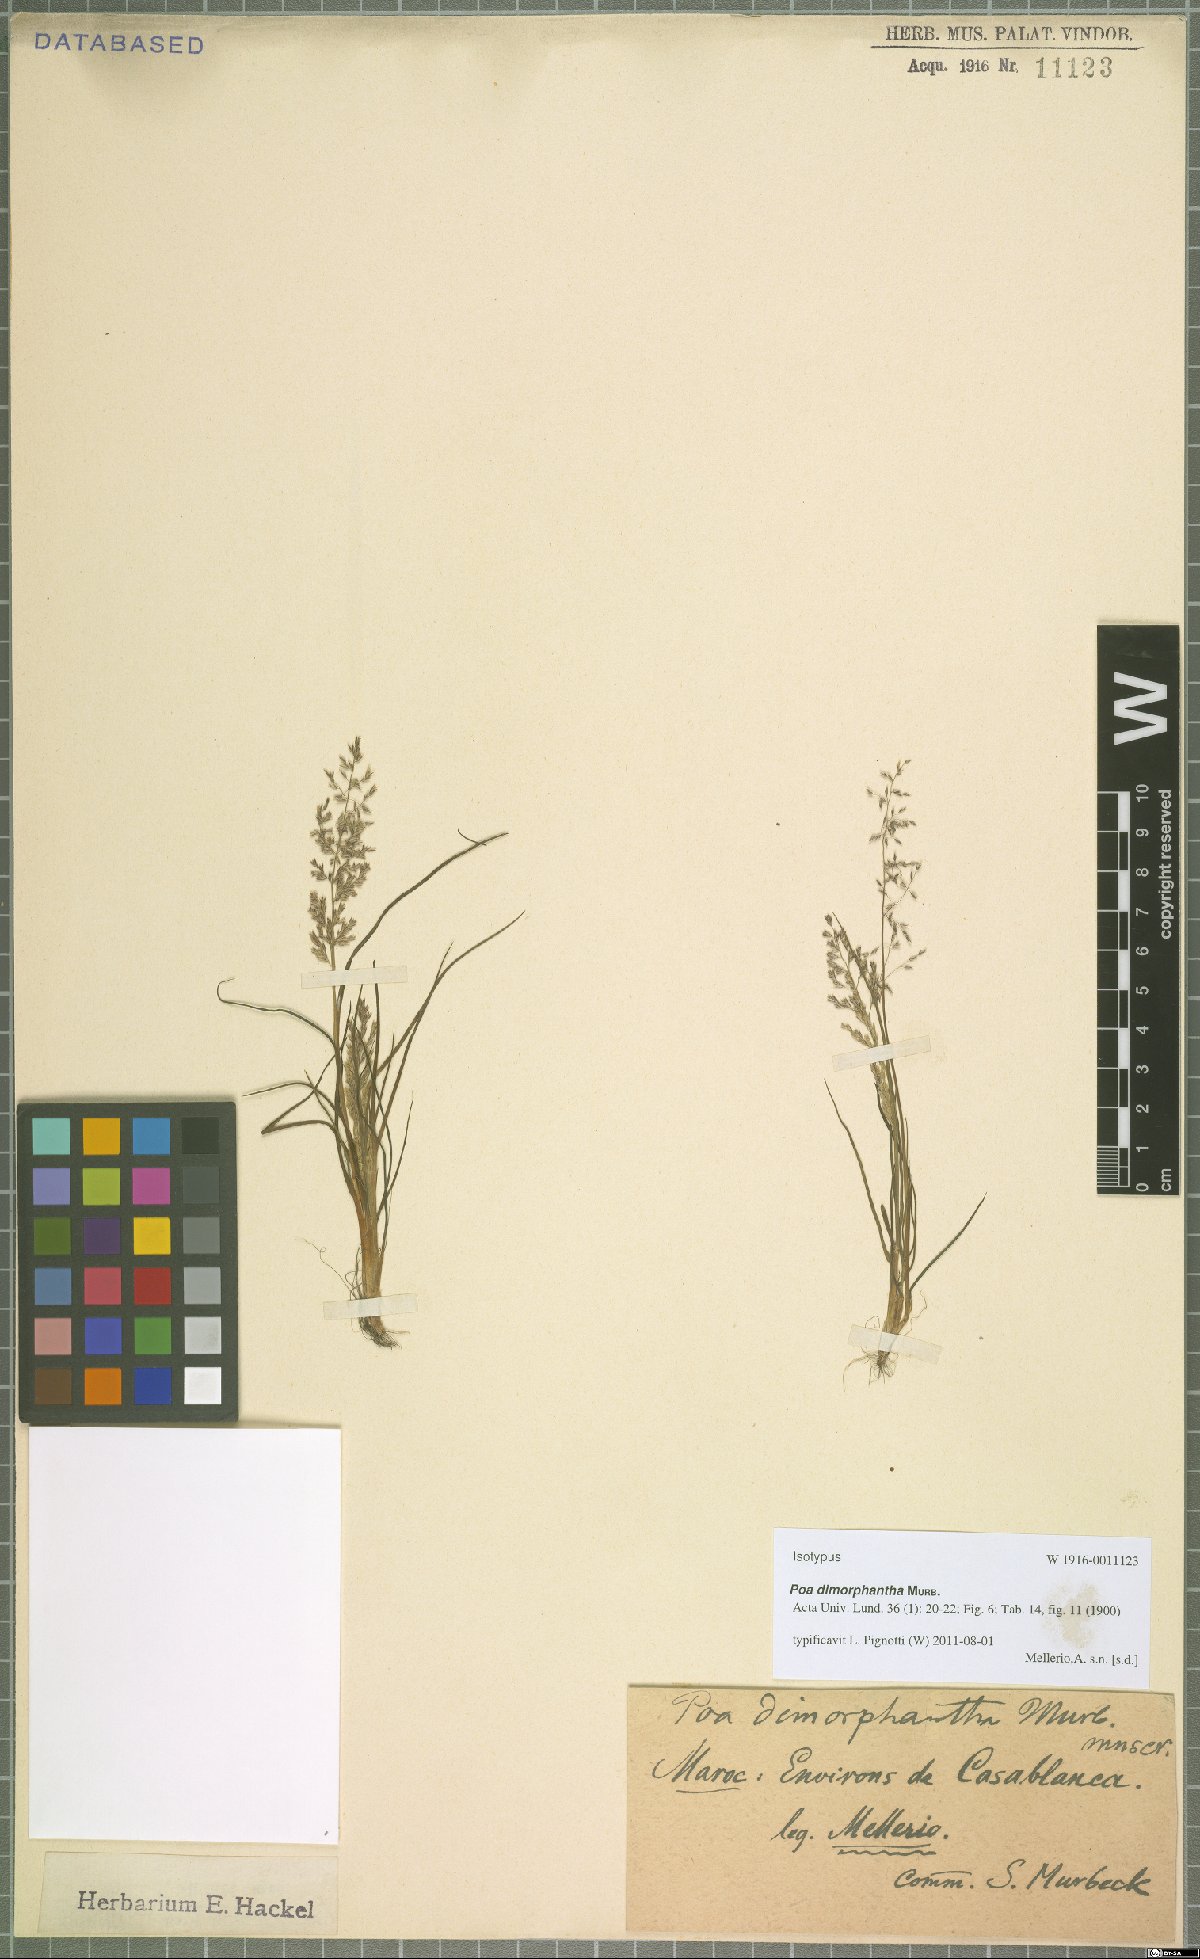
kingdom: Plantae
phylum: Tracheophyta
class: Liliopsida
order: Poales
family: Poaceae
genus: Poa
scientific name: Poa dimorphantha
